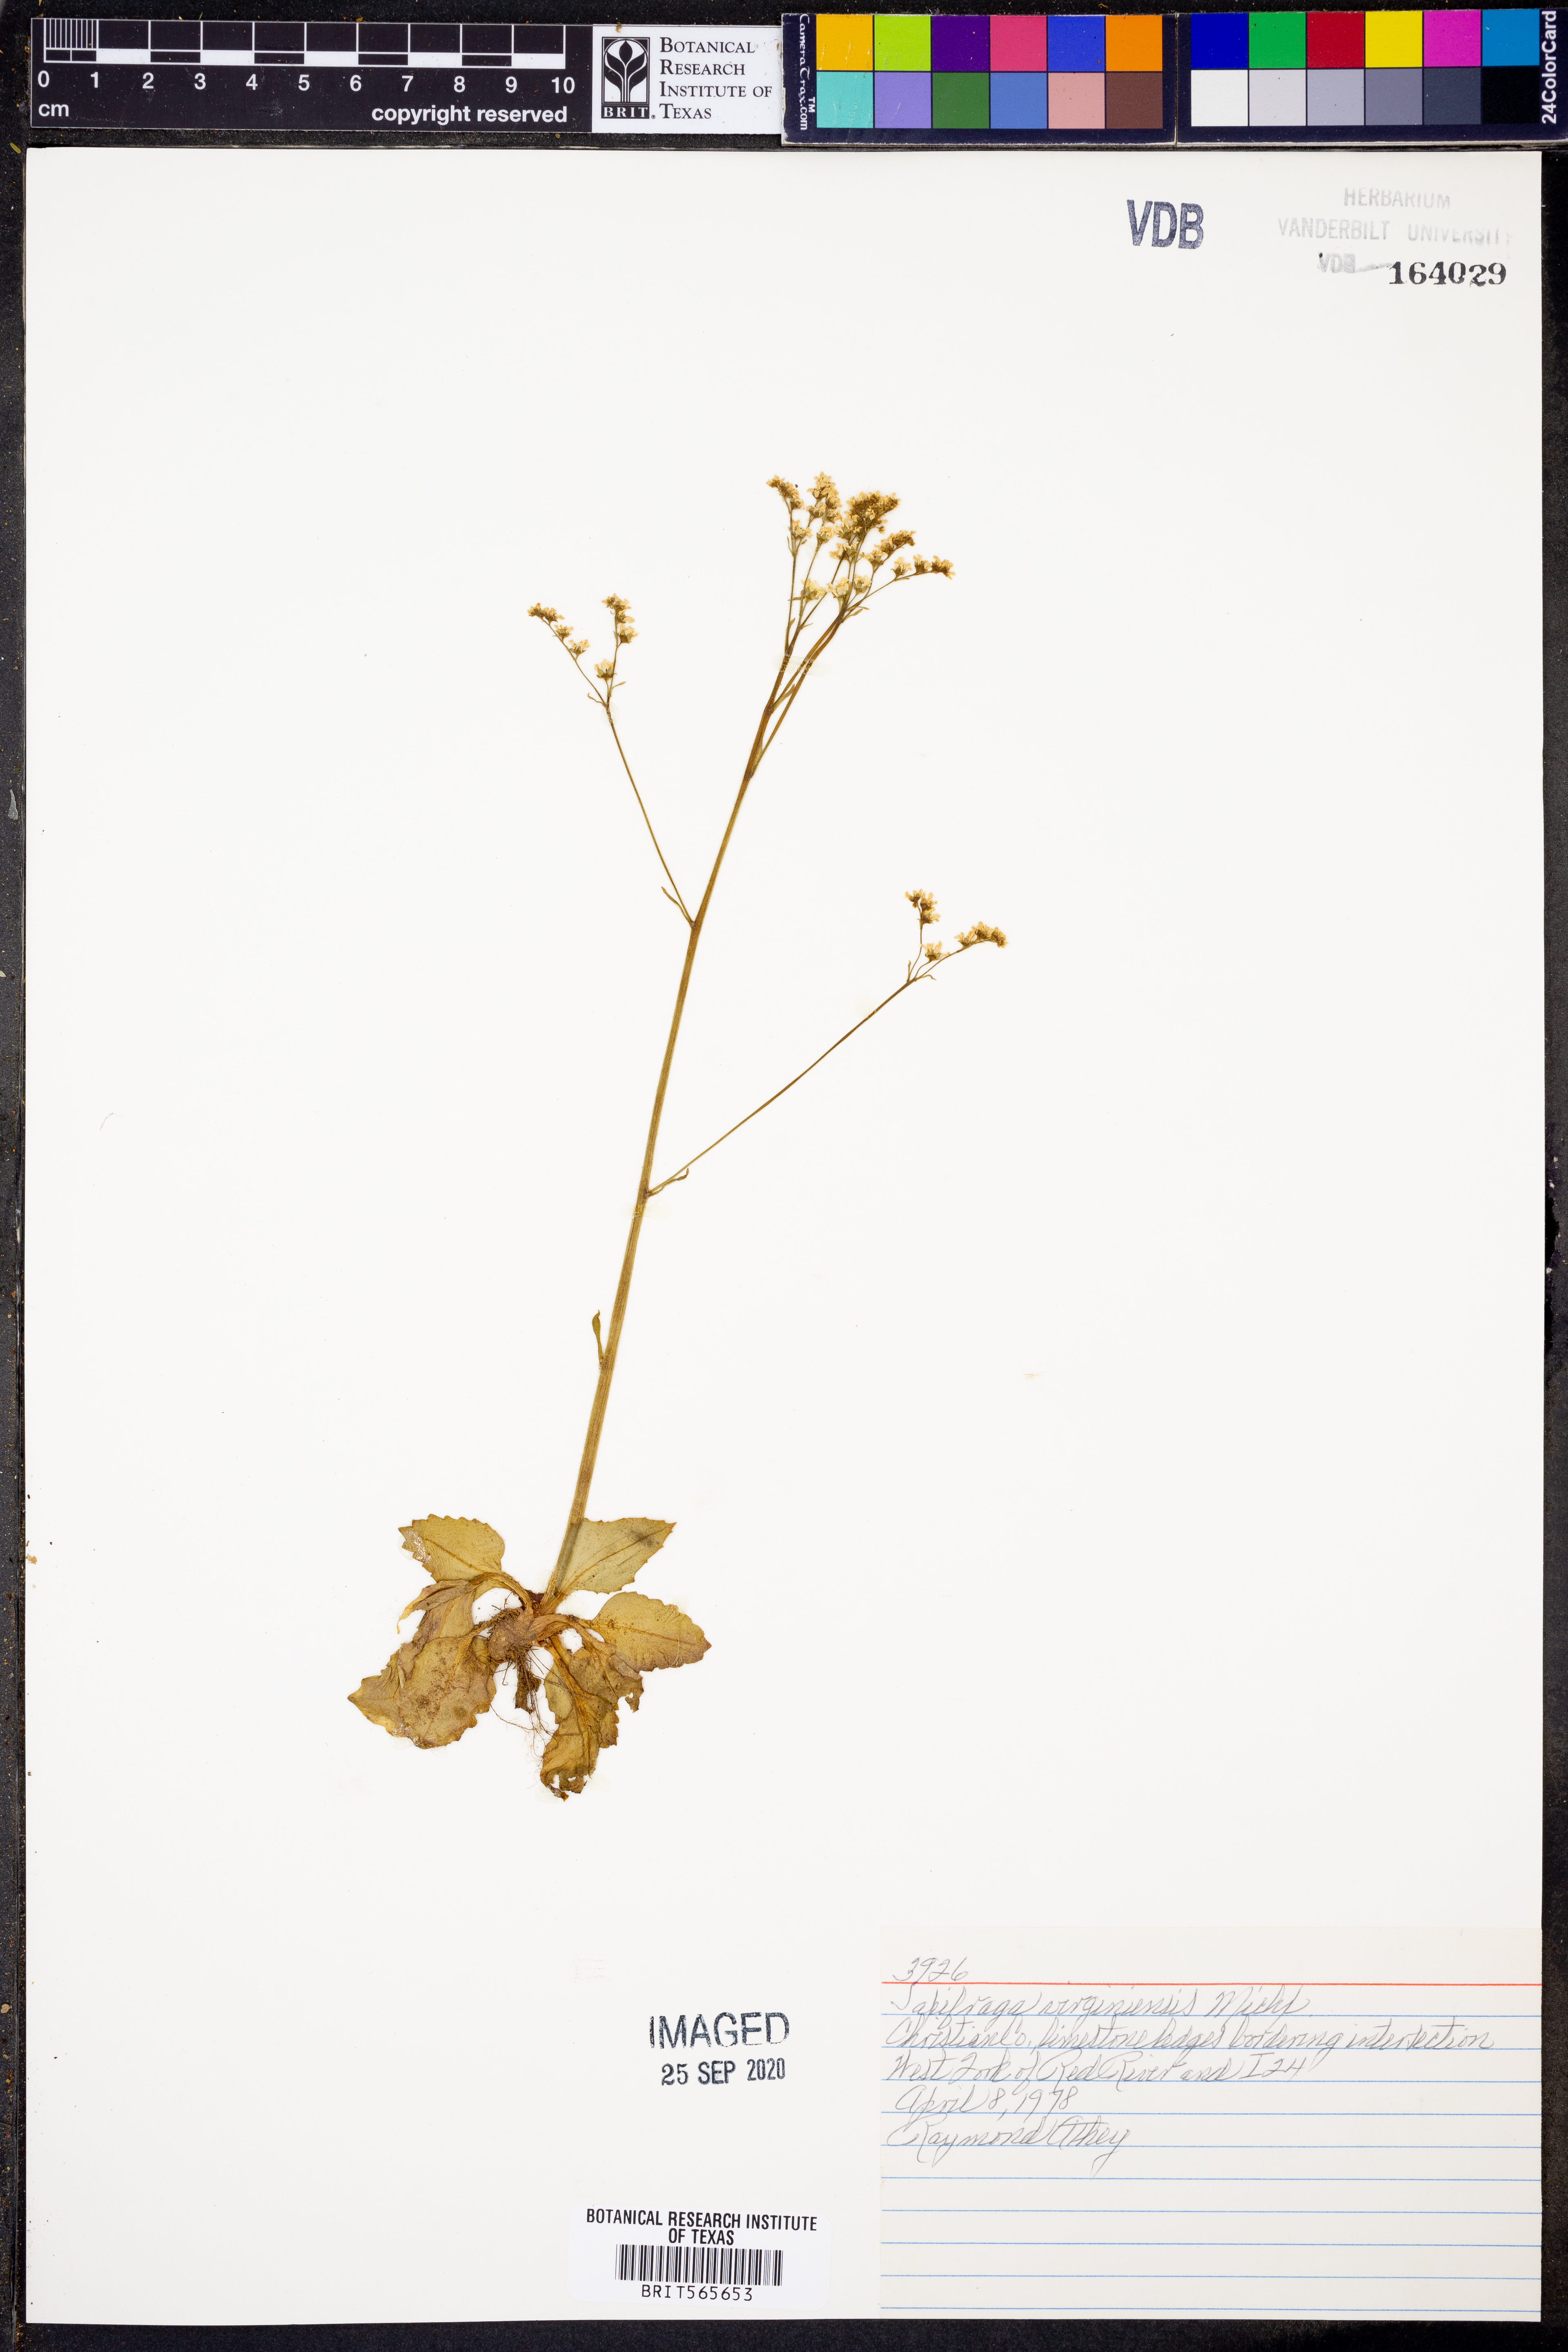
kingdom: Plantae
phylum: Tracheophyta
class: Magnoliopsida
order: Saxifragales
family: Saxifragaceae
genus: Micranthes
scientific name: Micranthes virginiensis
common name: Early saxifrage
